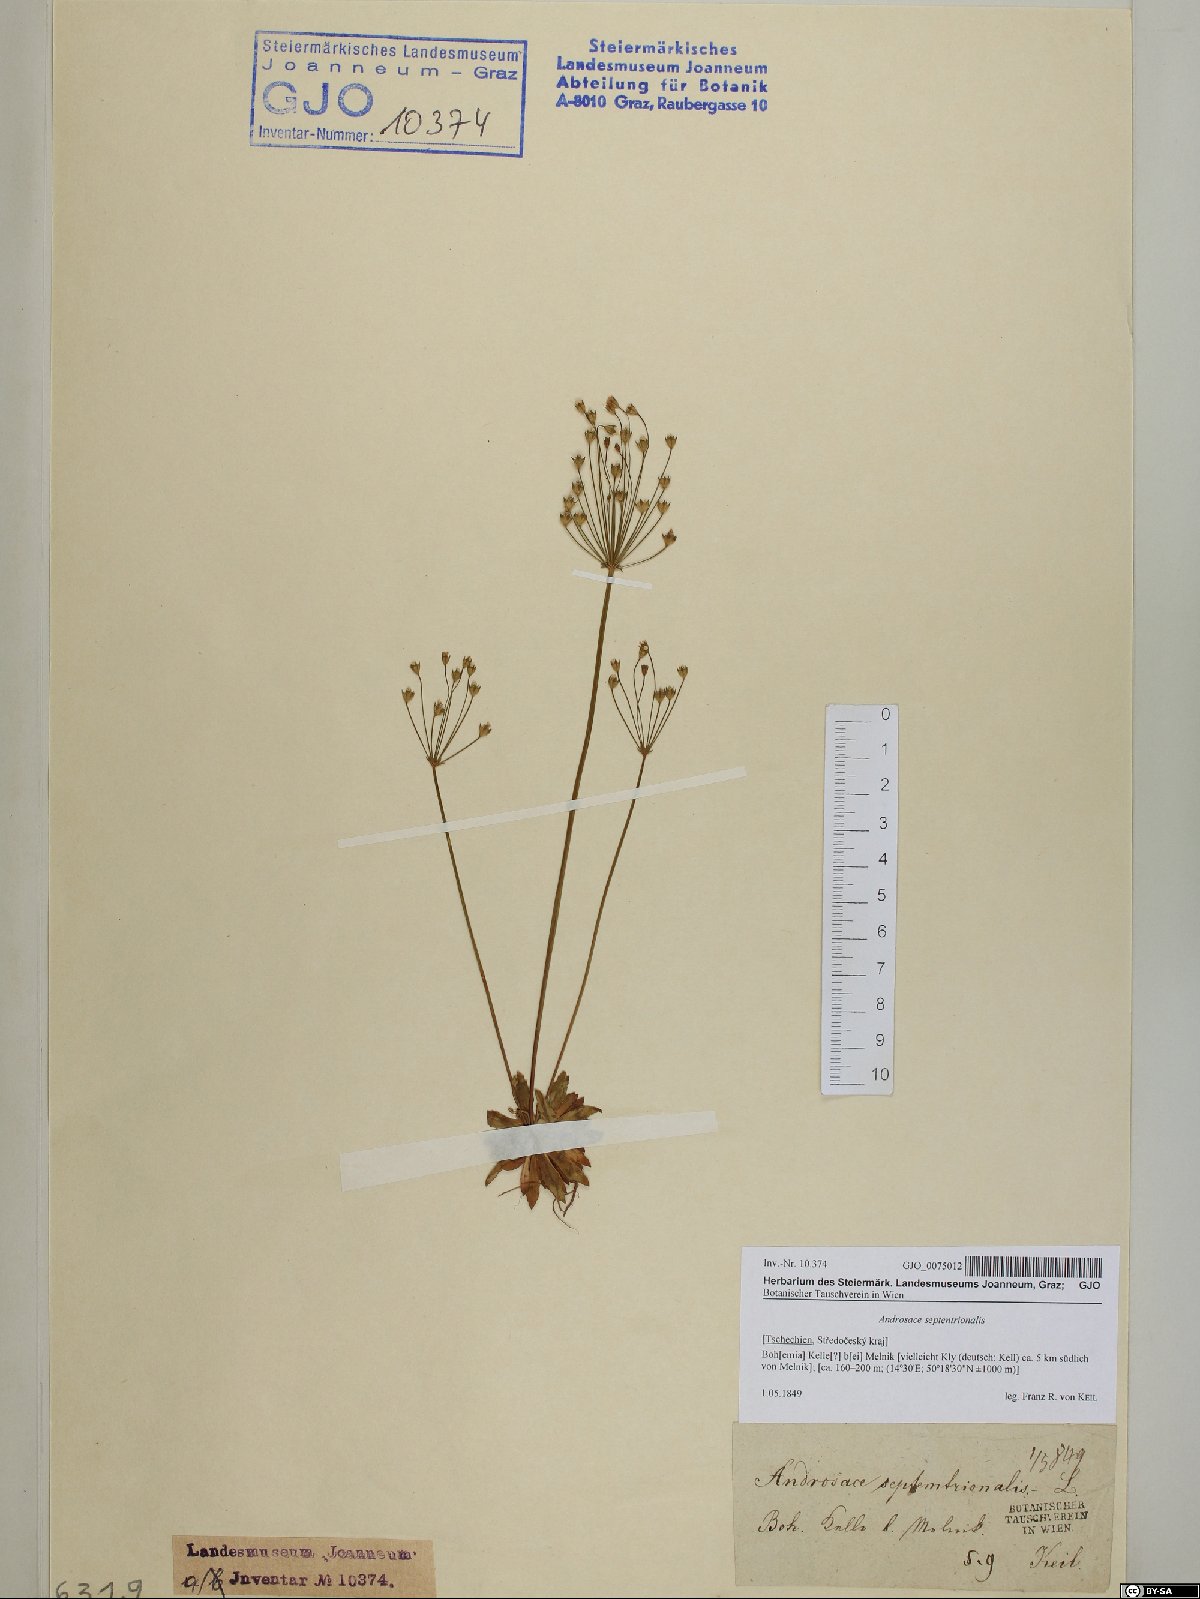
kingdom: Plantae
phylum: Tracheophyta
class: Magnoliopsida
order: Ericales
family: Primulaceae
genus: Androsace
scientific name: Androsace septentrionalis
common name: Hairy northern fairy-candelabra
